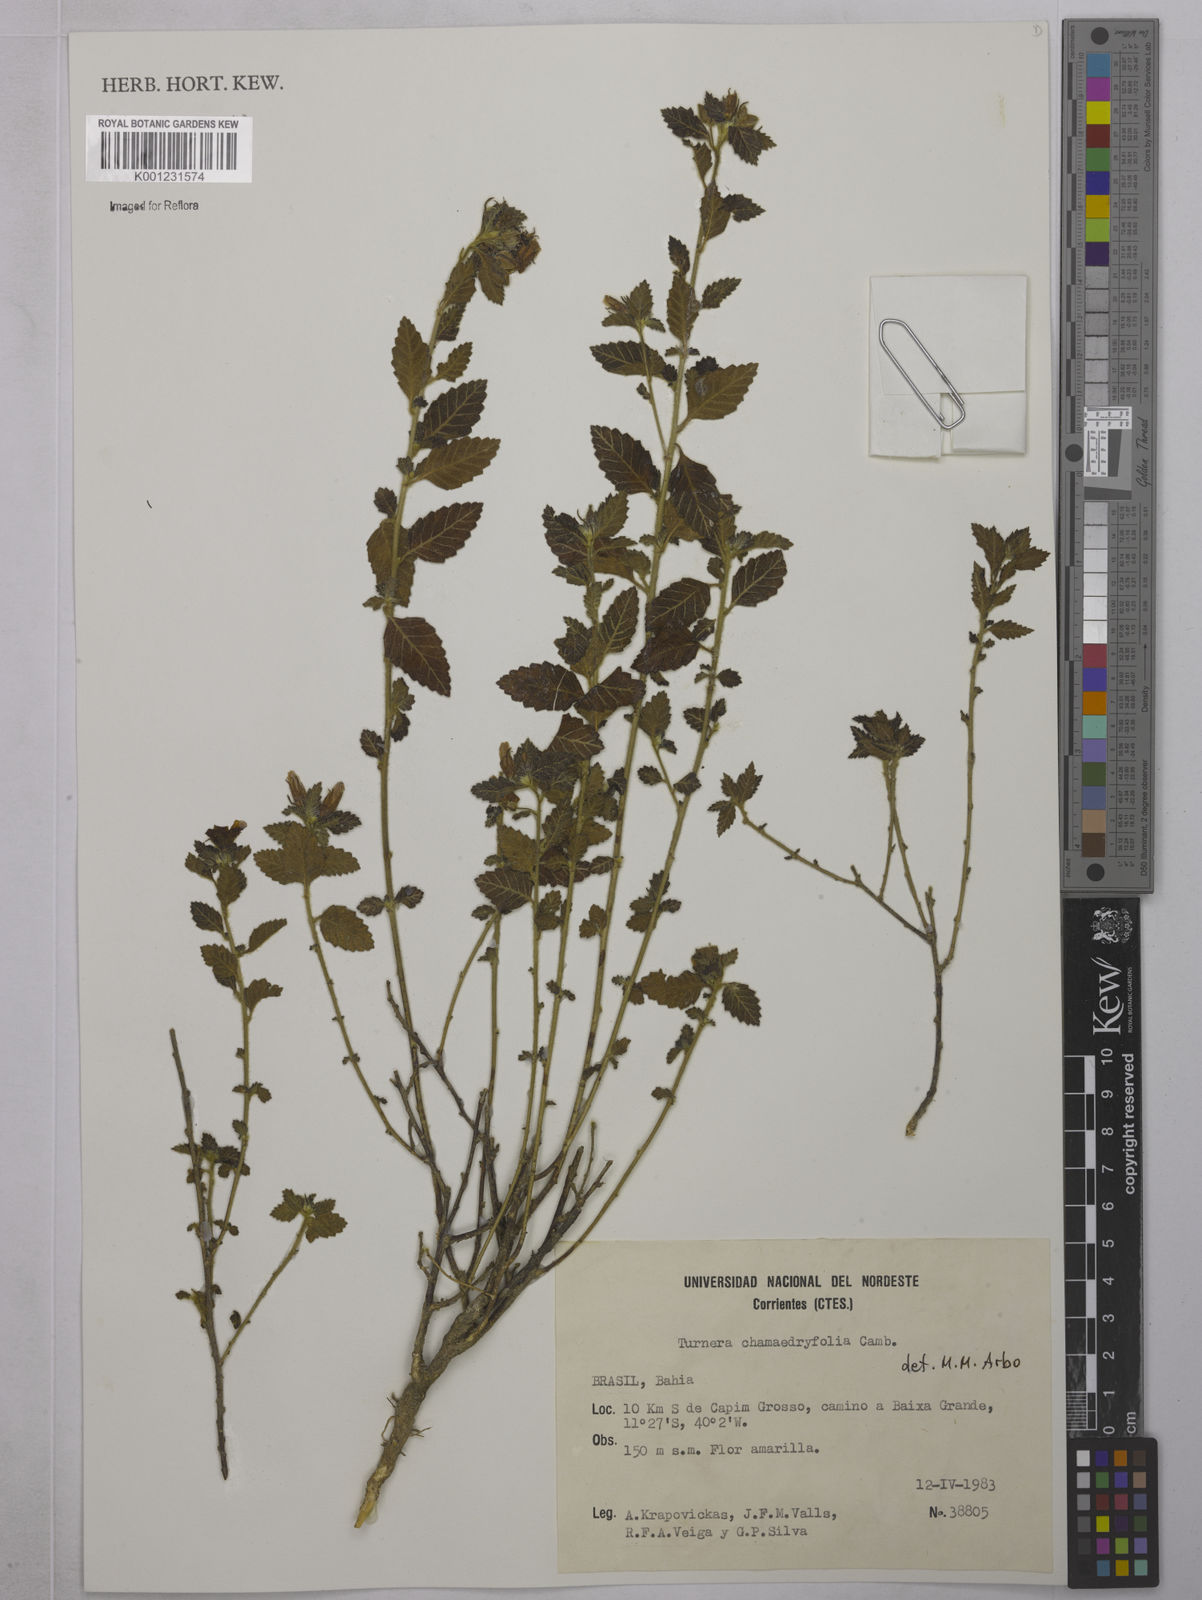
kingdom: Plantae
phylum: Tracheophyta
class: Magnoliopsida
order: Malpighiales
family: Turneraceae
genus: Turnera
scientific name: Turnera chamaedrifolia
